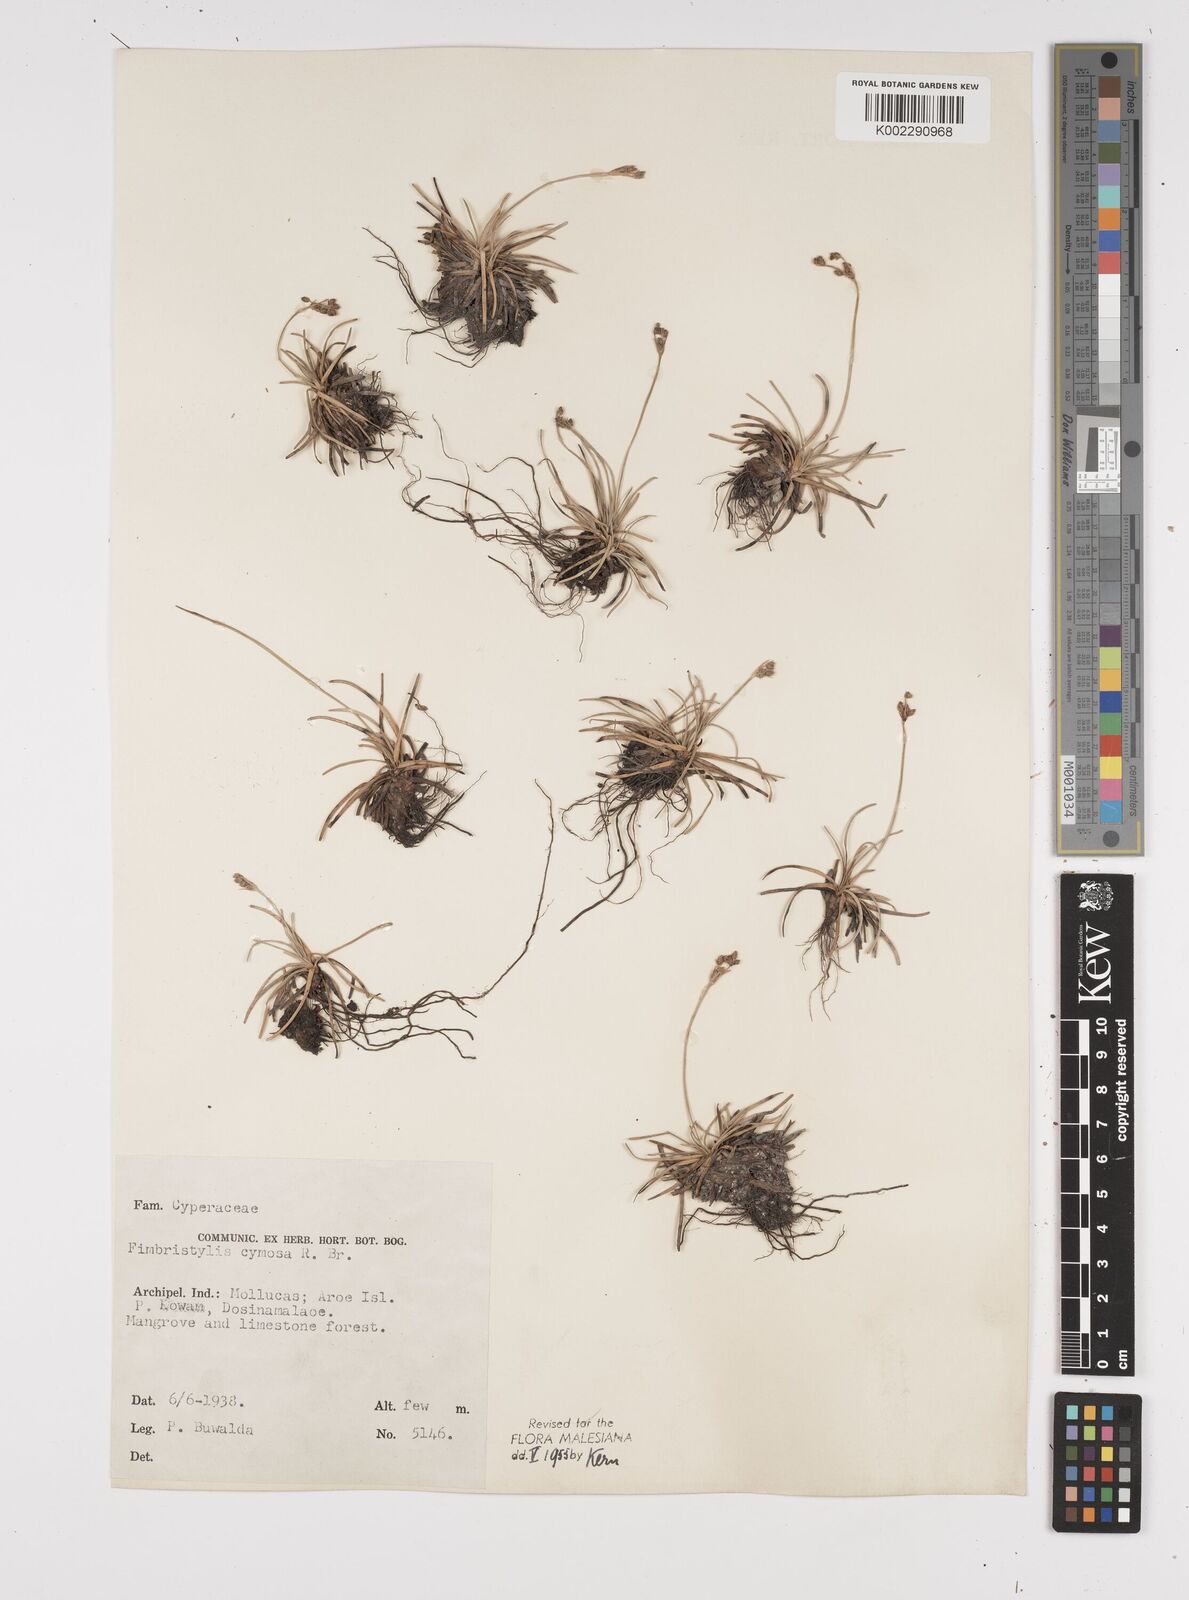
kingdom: Plantae
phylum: Tracheophyta
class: Liliopsida
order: Poales
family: Cyperaceae
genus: Fimbristylis
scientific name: Fimbristylis cymosa
